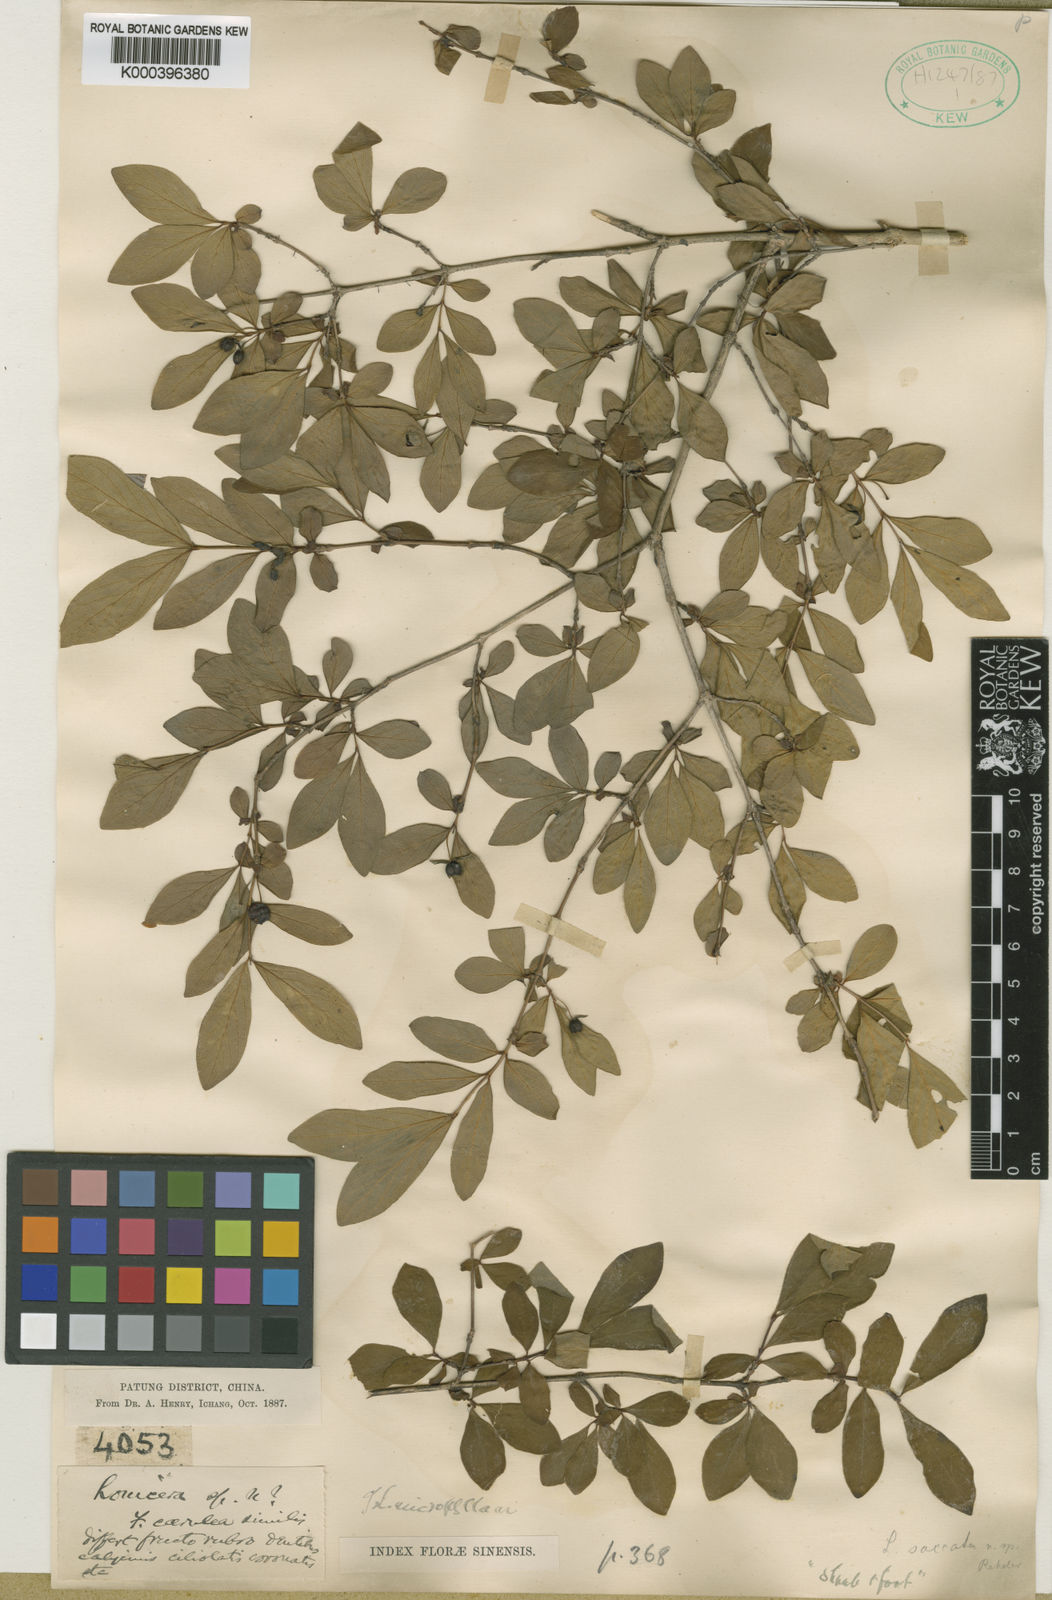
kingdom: Plantae
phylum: Tracheophyta
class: Magnoliopsida
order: Dipsacales
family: Caprifoliaceae
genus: Lonicera
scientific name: Lonicera tangutica
